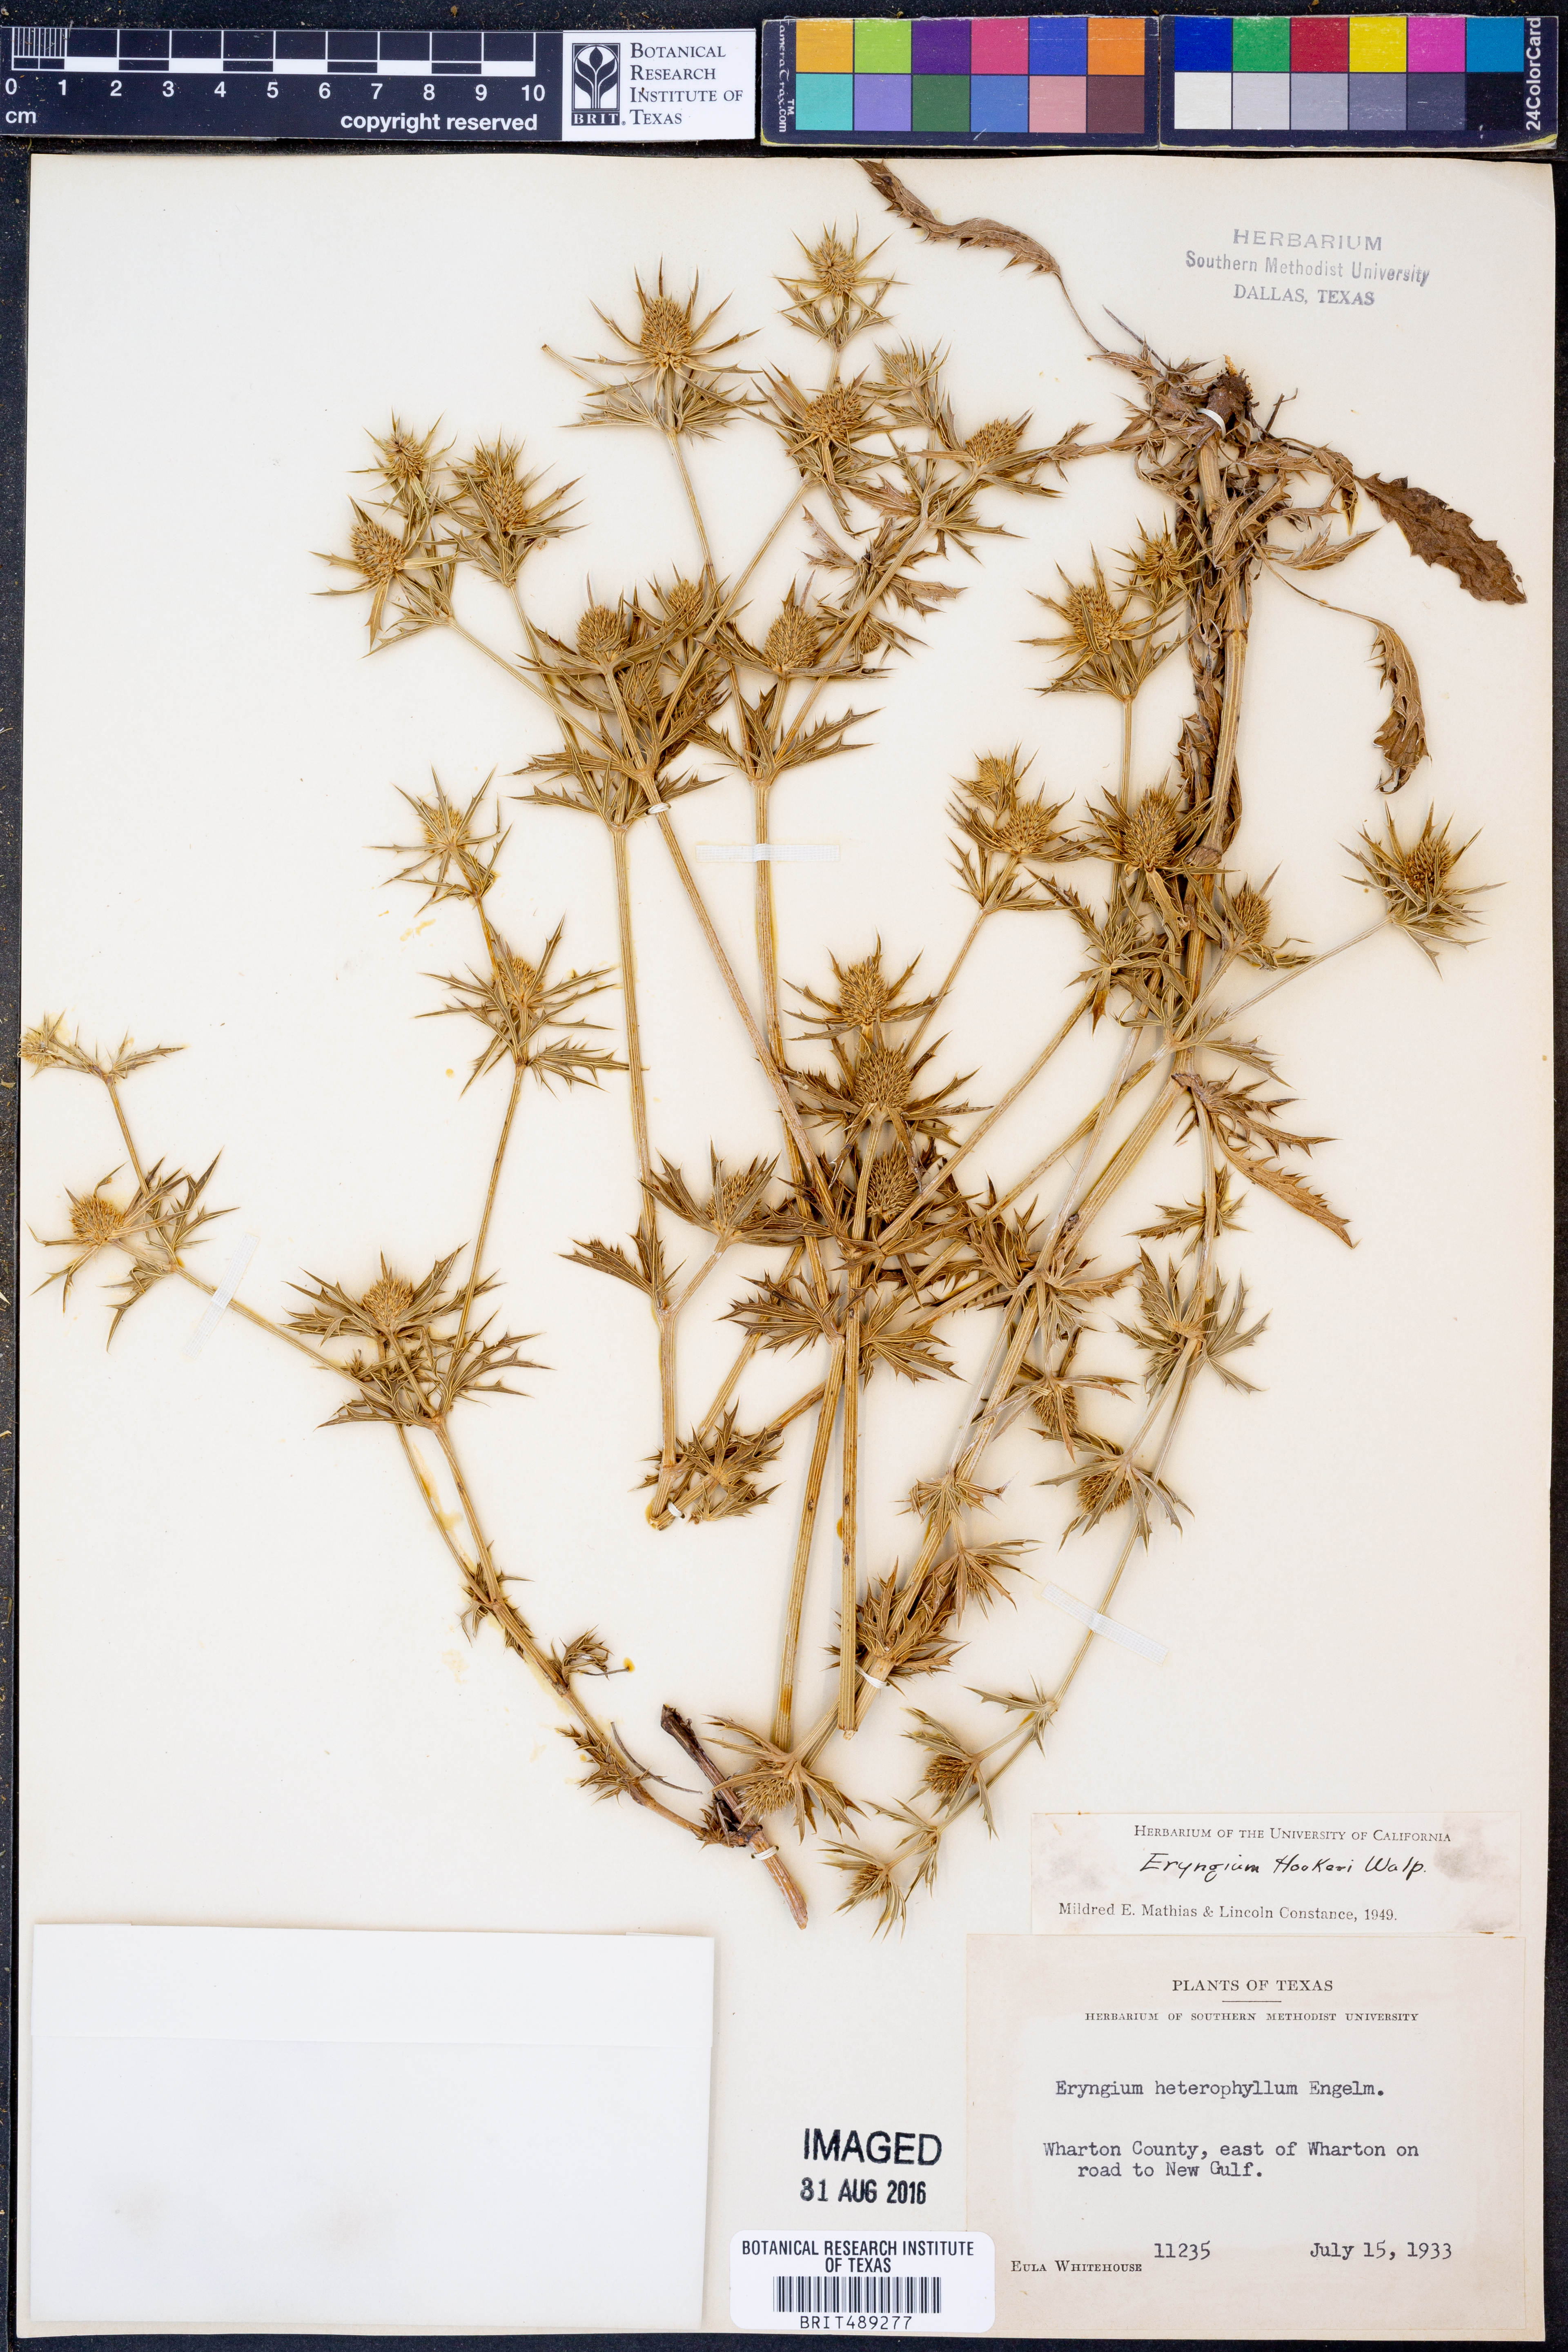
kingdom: Plantae
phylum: Tracheophyta
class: Magnoliopsida
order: Apiales
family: Apiaceae
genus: Eryngium
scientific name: Eryngium hookeri
